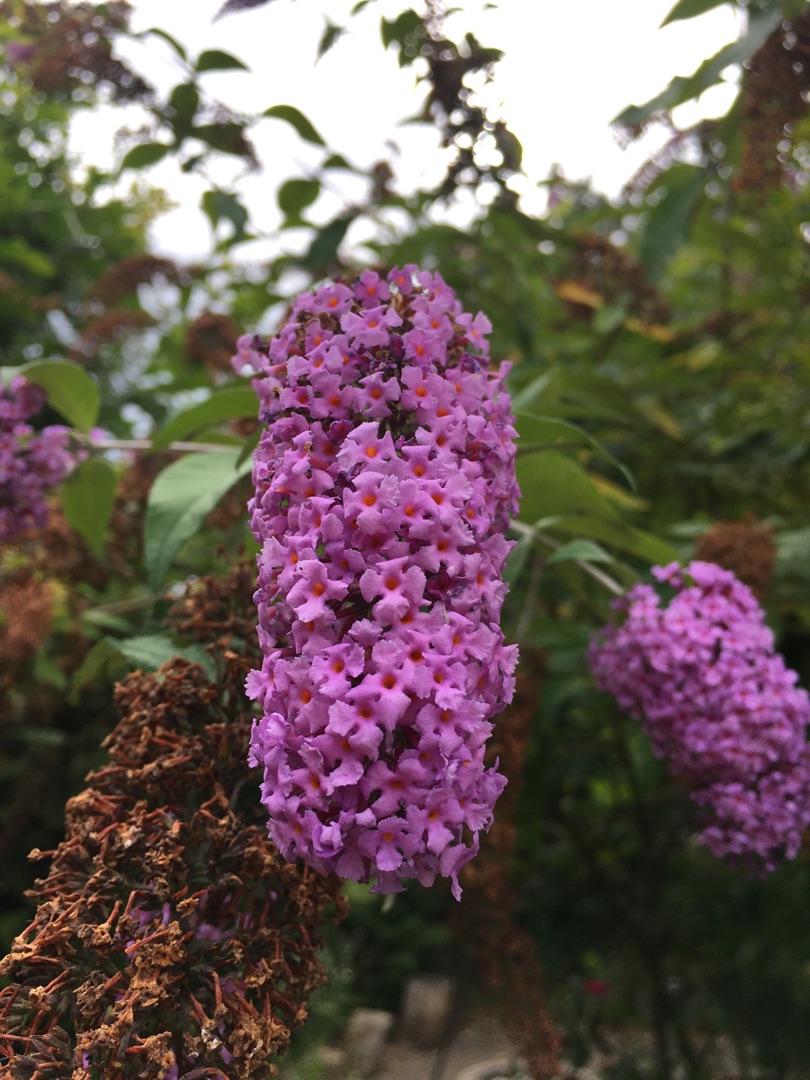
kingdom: Plantae
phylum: Tracheophyta
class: Magnoliopsida
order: Lamiales
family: Scrophulariaceae
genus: Buddleja
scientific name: Buddleja davidii
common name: Sommerfuglebusk
